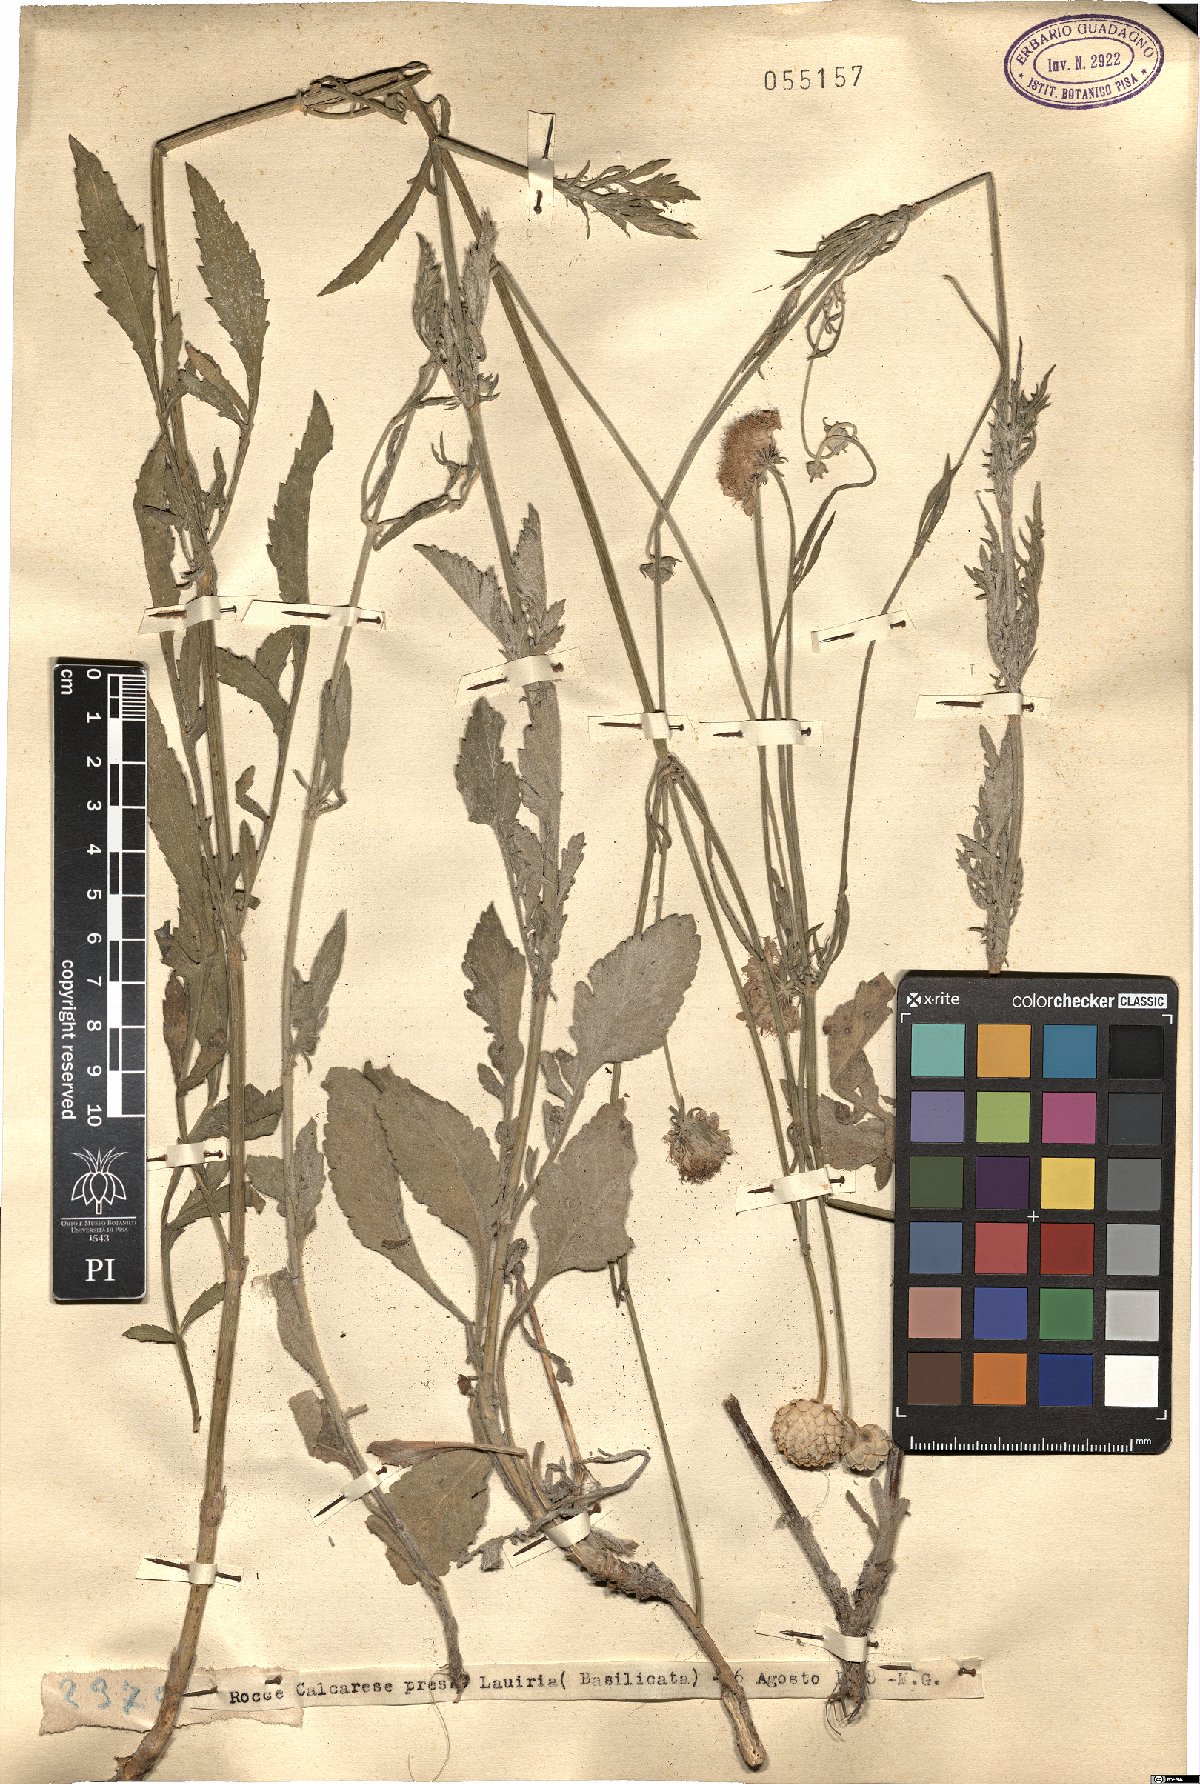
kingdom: Plantae
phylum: Tracheophyta
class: Magnoliopsida
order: Dipsacales
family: Caprifoliaceae
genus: Cephalaria
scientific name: Cephalaria
